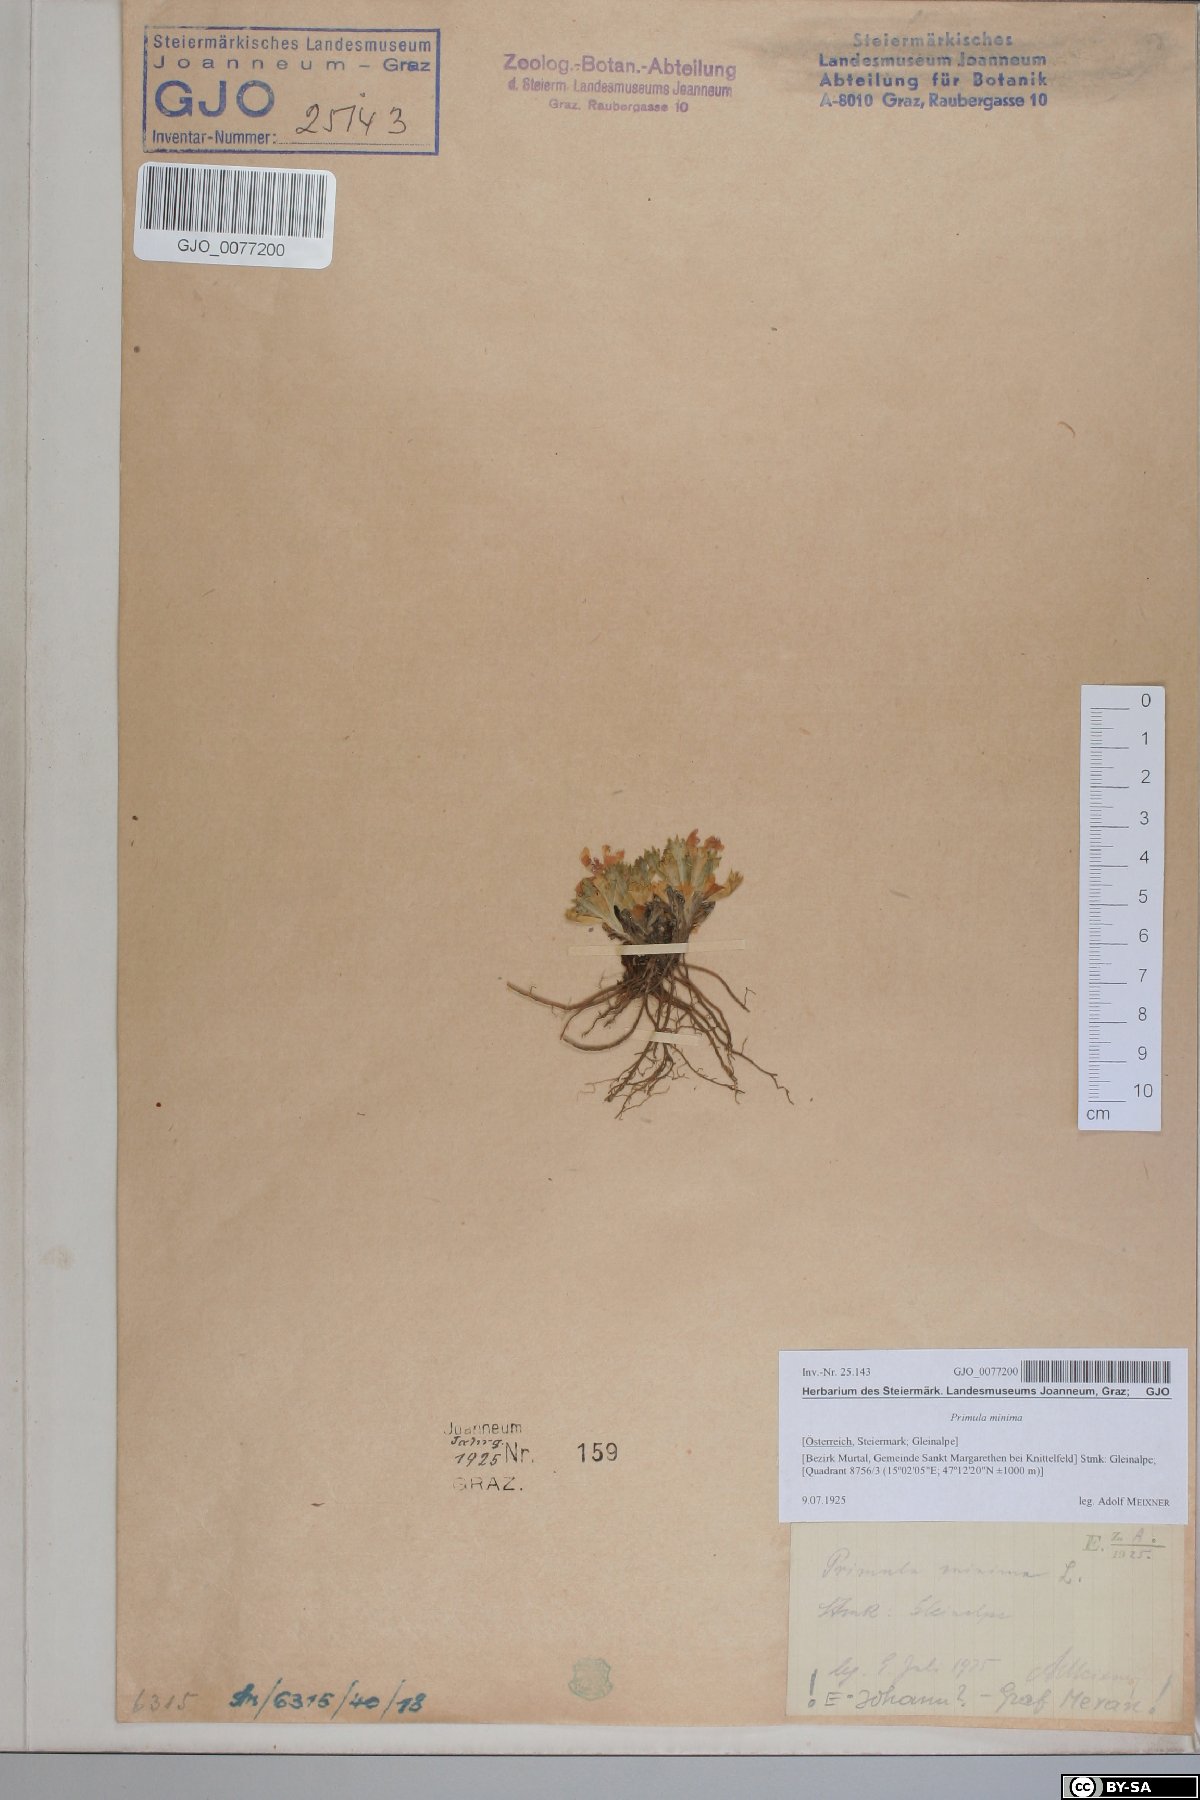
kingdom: Plantae
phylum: Tracheophyta
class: Magnoliopsida
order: Ericales
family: Primulaceae
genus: Primula
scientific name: Primula minima
